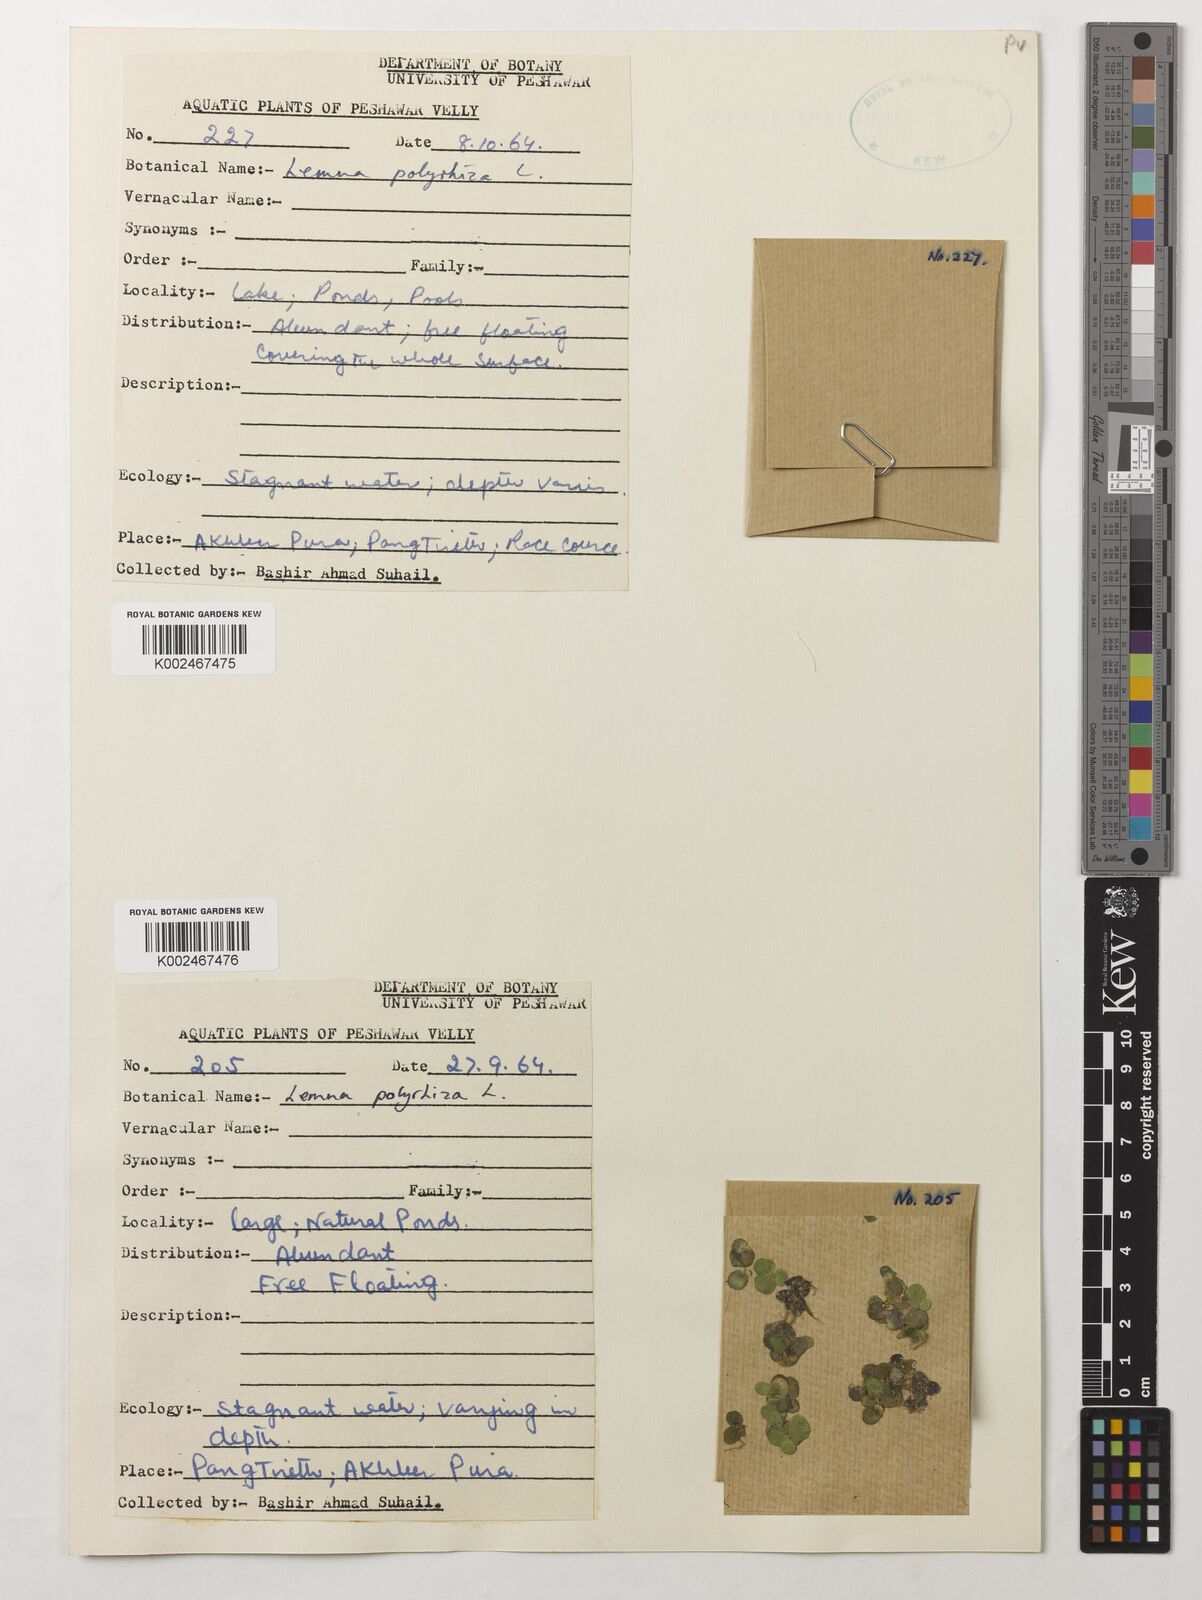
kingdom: Plantae
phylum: Tracheophyta
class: Liliopsida
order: Alismatales
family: Araceae
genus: Spirodela
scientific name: Spirodela polyrhiza
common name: Great duckweed
